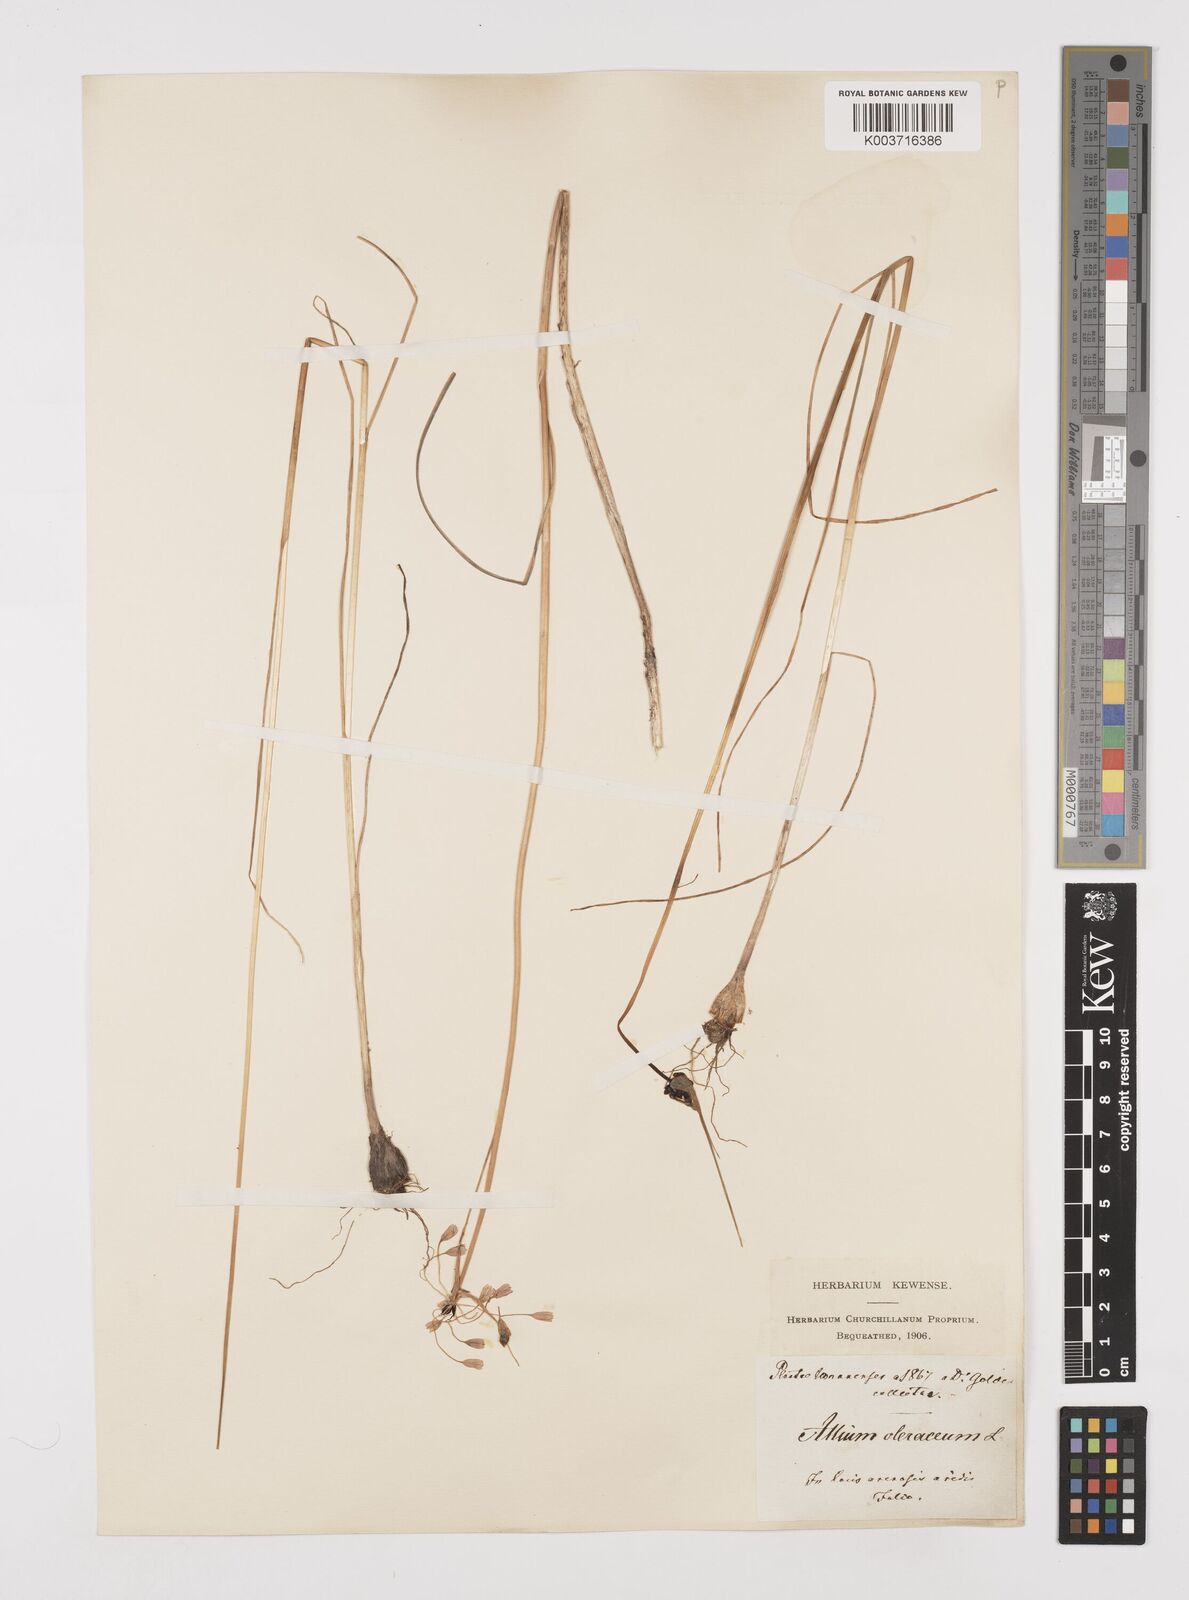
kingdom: Plantae
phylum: Tracheophyta
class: Liliopsida
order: Asparagales
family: Amaryllidaceae
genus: Allium
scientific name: Allium oleraceum
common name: Field garlic
